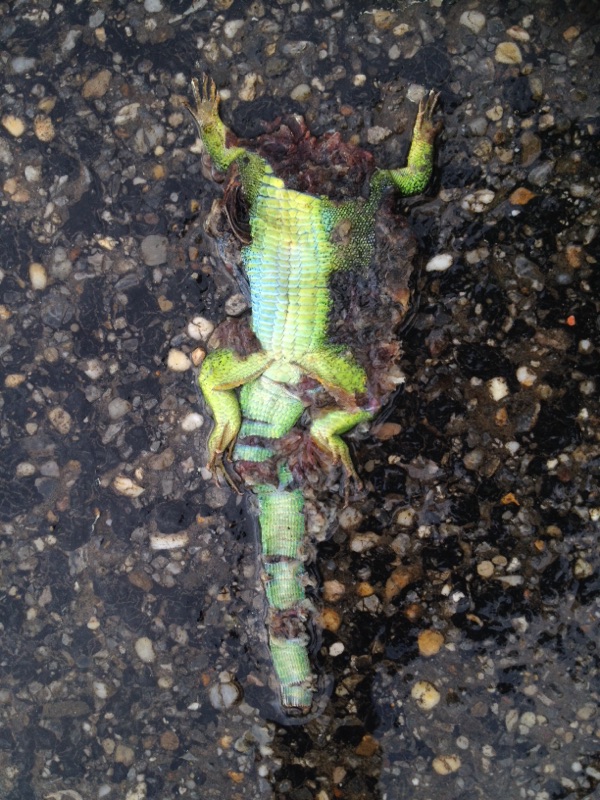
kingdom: Animalia
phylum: Chordata
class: Squamata
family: Lacertidae
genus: Lacerta
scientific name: Lacerta viridis
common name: European green lizard
